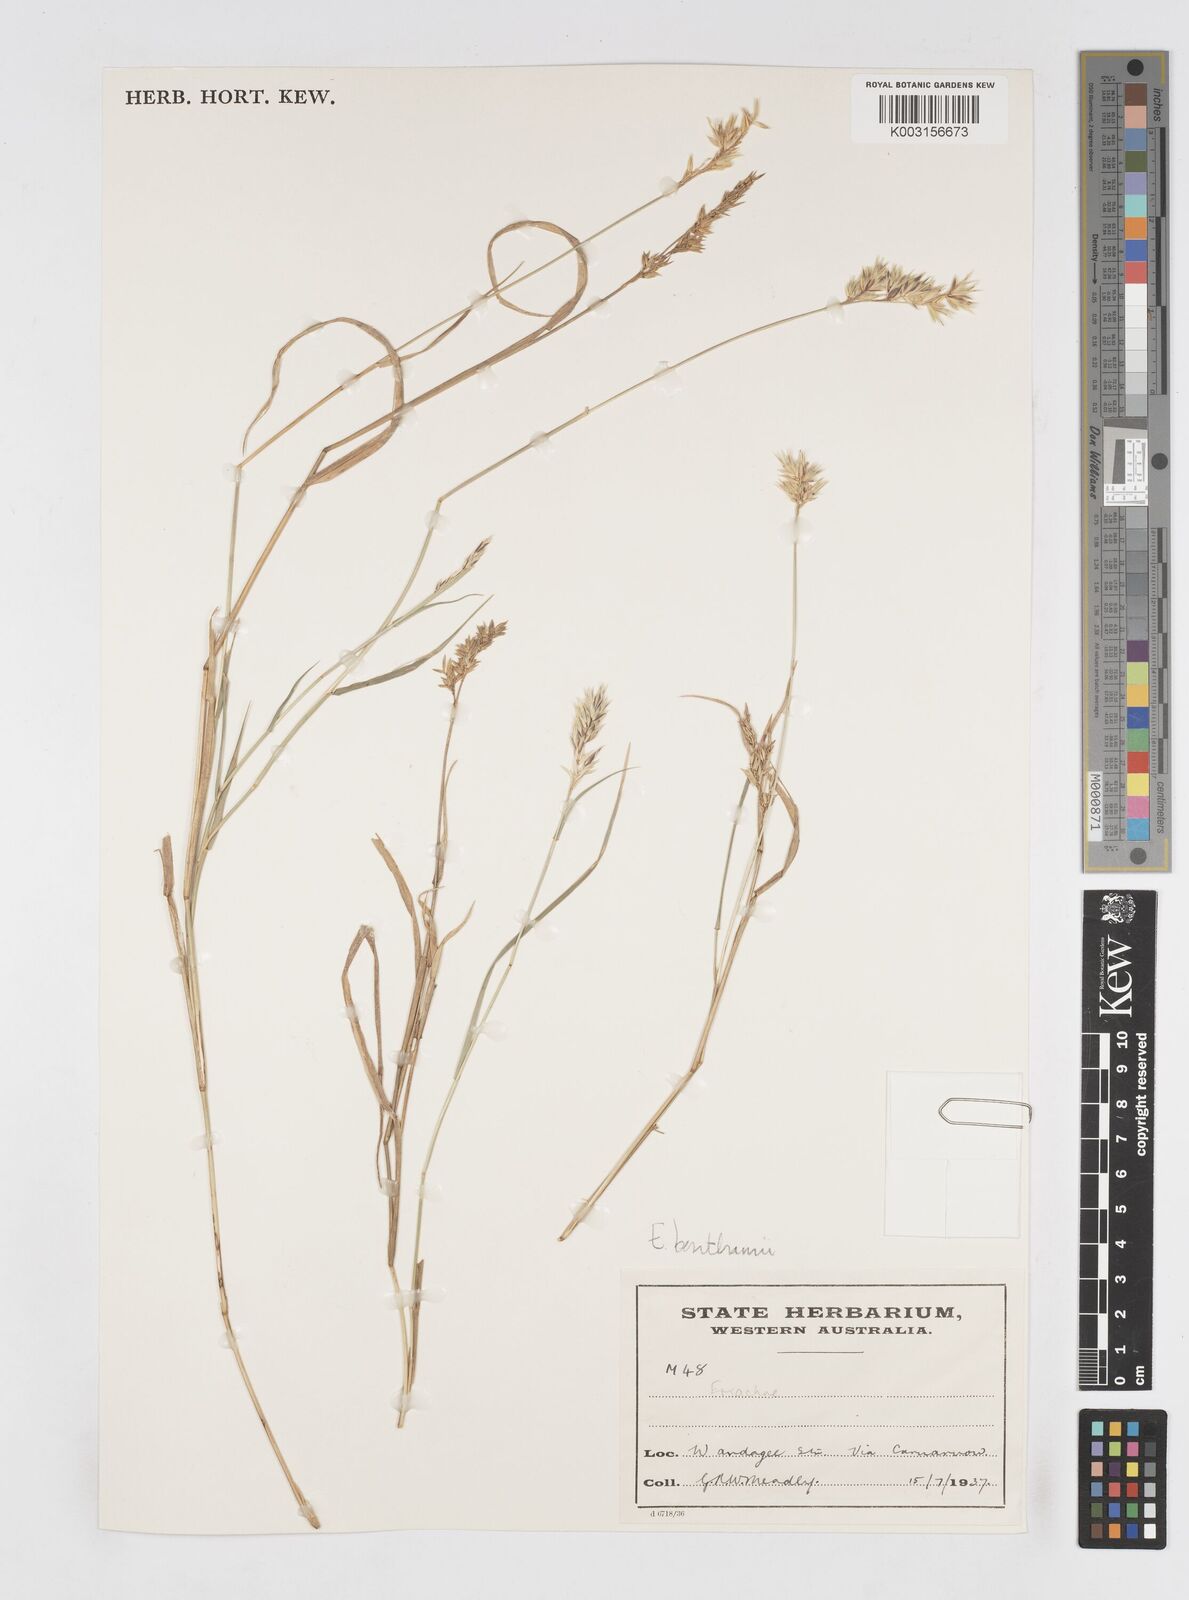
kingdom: Plantae
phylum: Tracheophyta
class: Liliopsida
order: Poales
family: Poaceae
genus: Eriachne
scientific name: Eriachne benthamii
